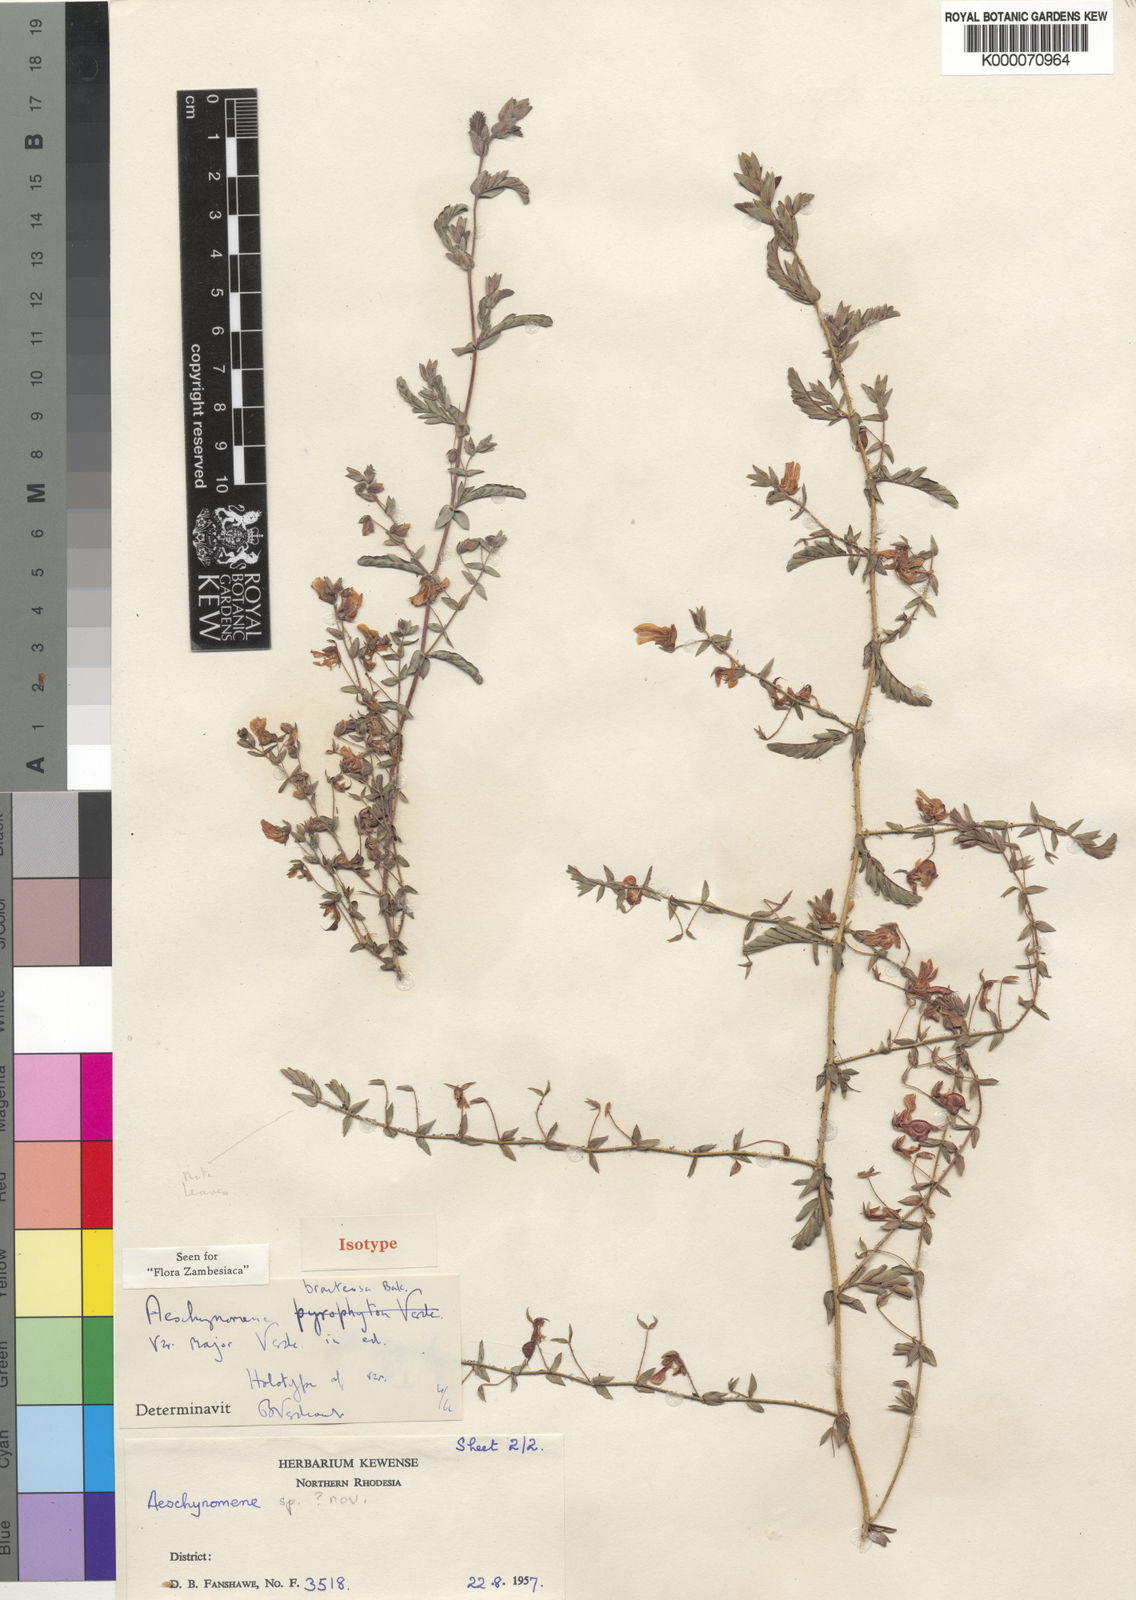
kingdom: Plantae
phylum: Tracheophyta
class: Magnoliopsida
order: Fabales
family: Fabaceae
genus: Aeschynomene
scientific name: Aeschynomene bracteosa
